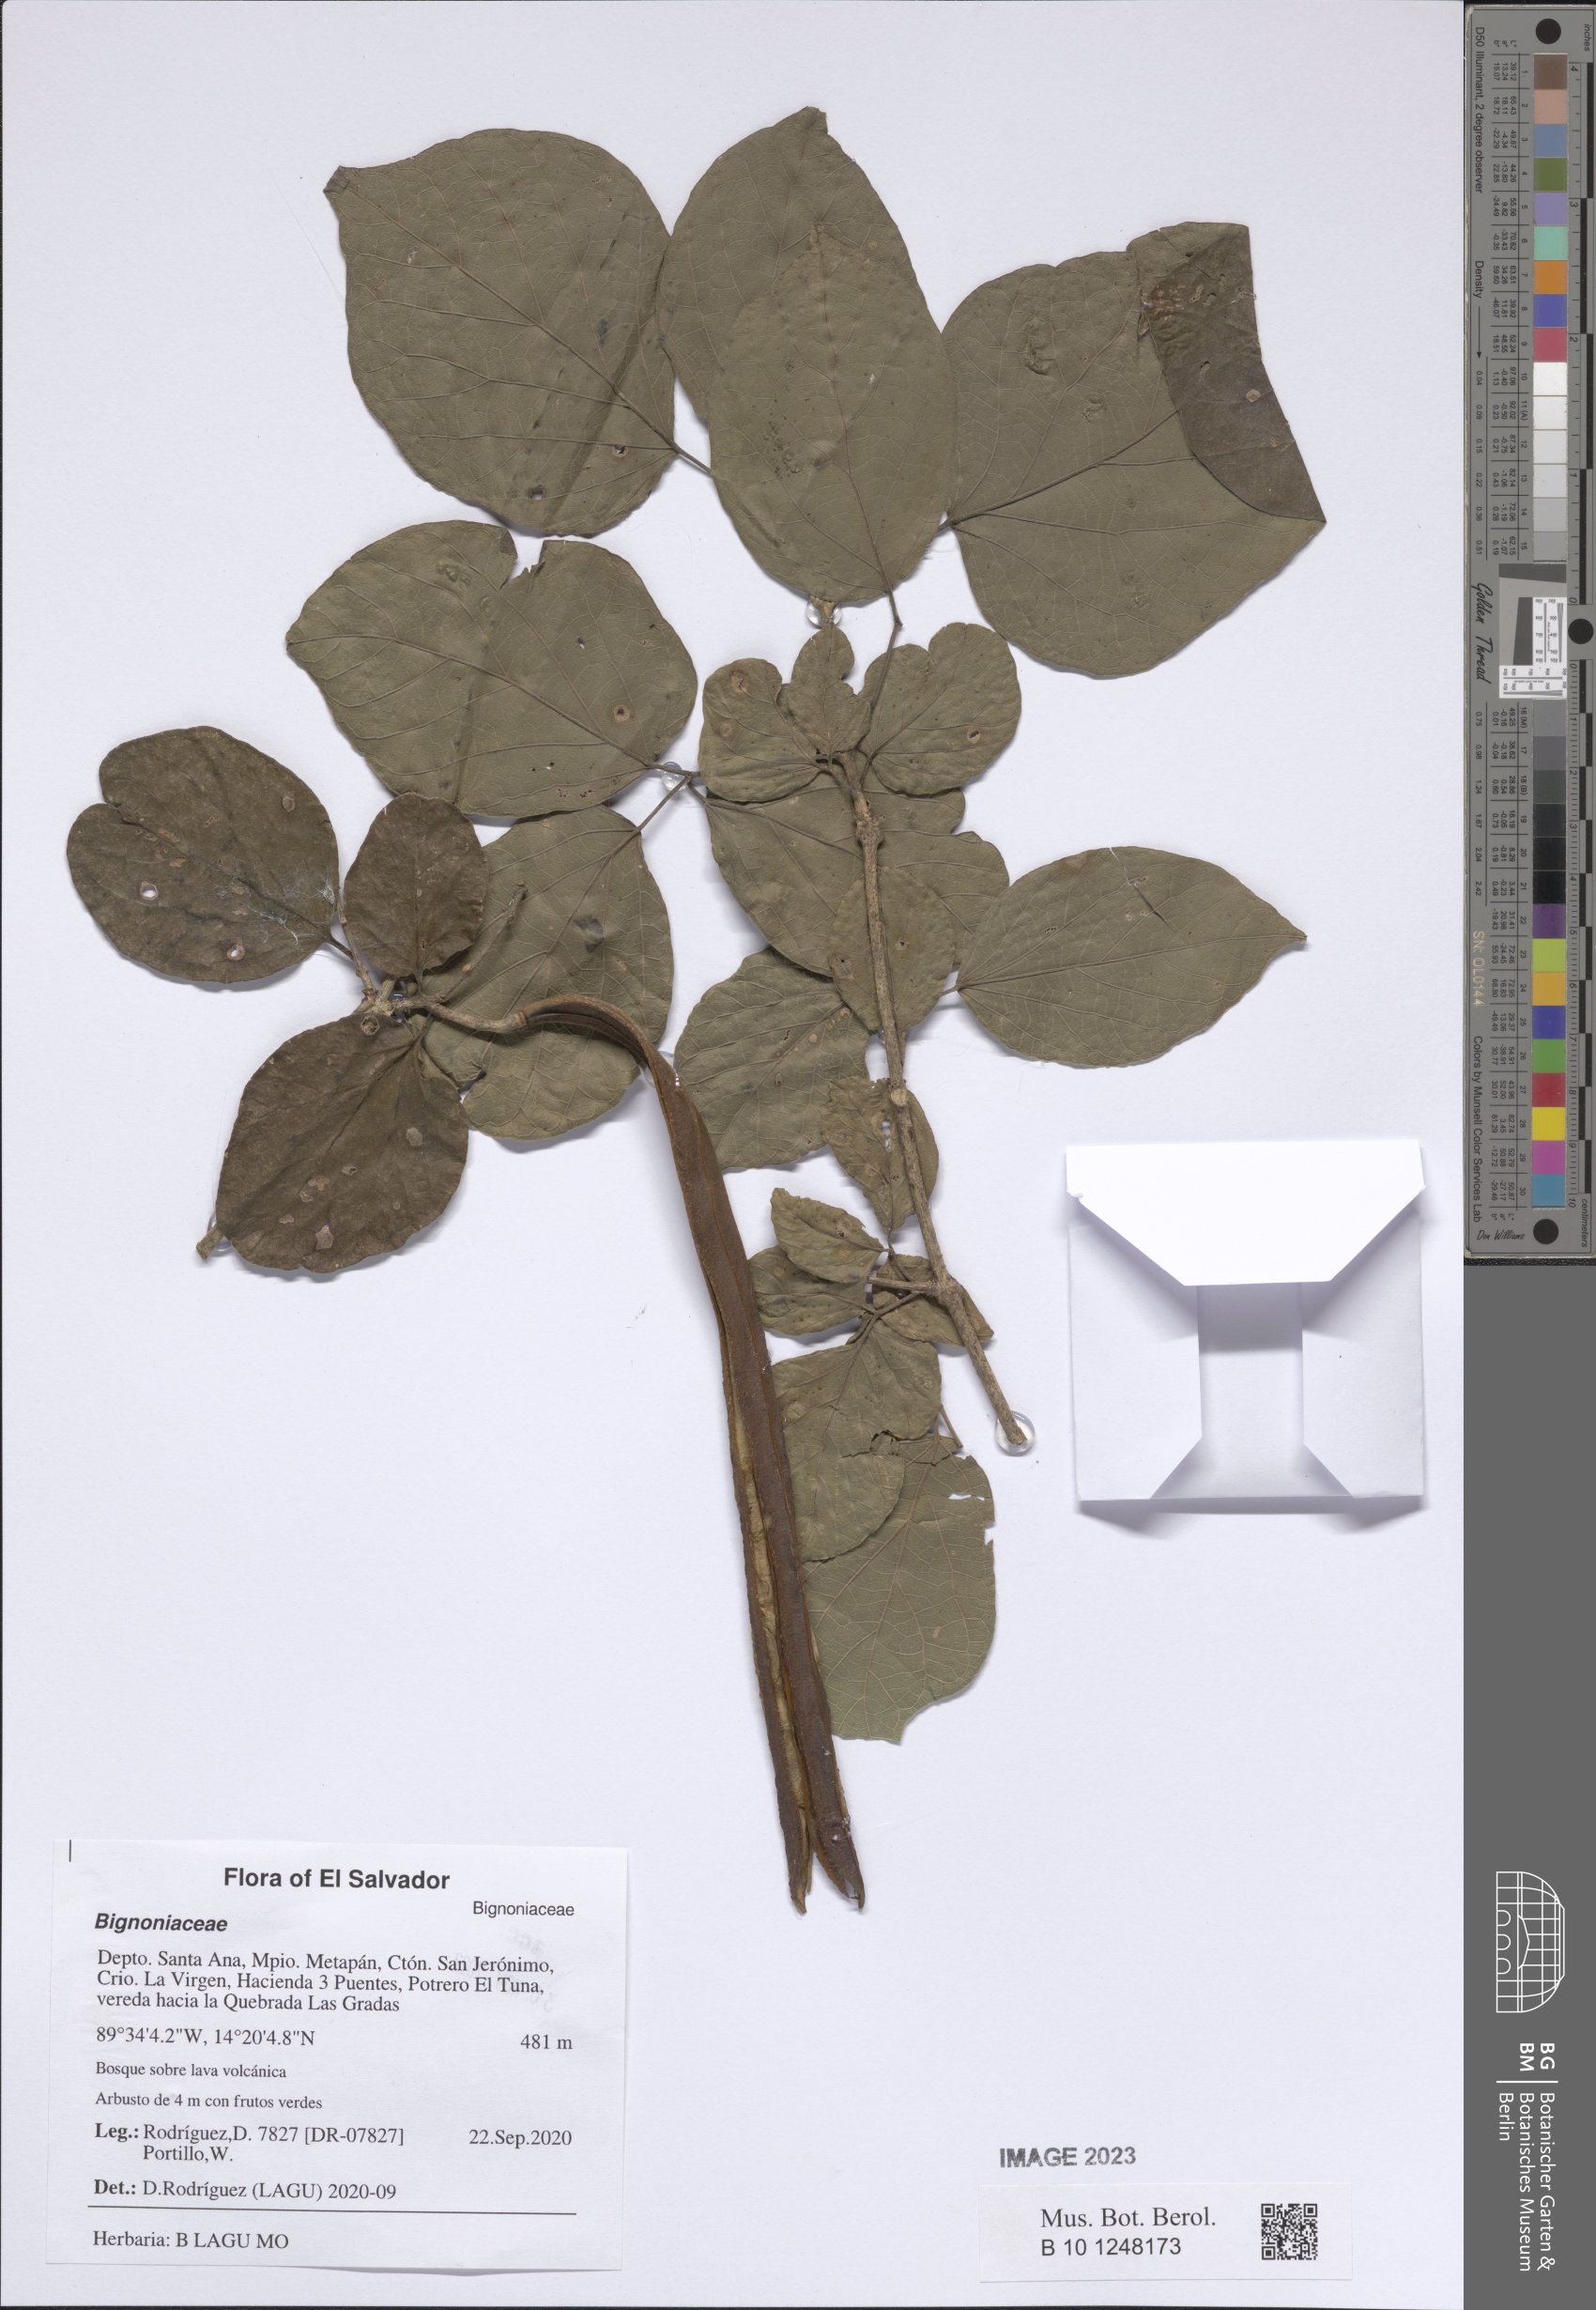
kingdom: Plantae
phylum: Tracheophyta
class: Magnoliopsida
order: Lamiales
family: Bignoniaceae
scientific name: Bignoniaceae
